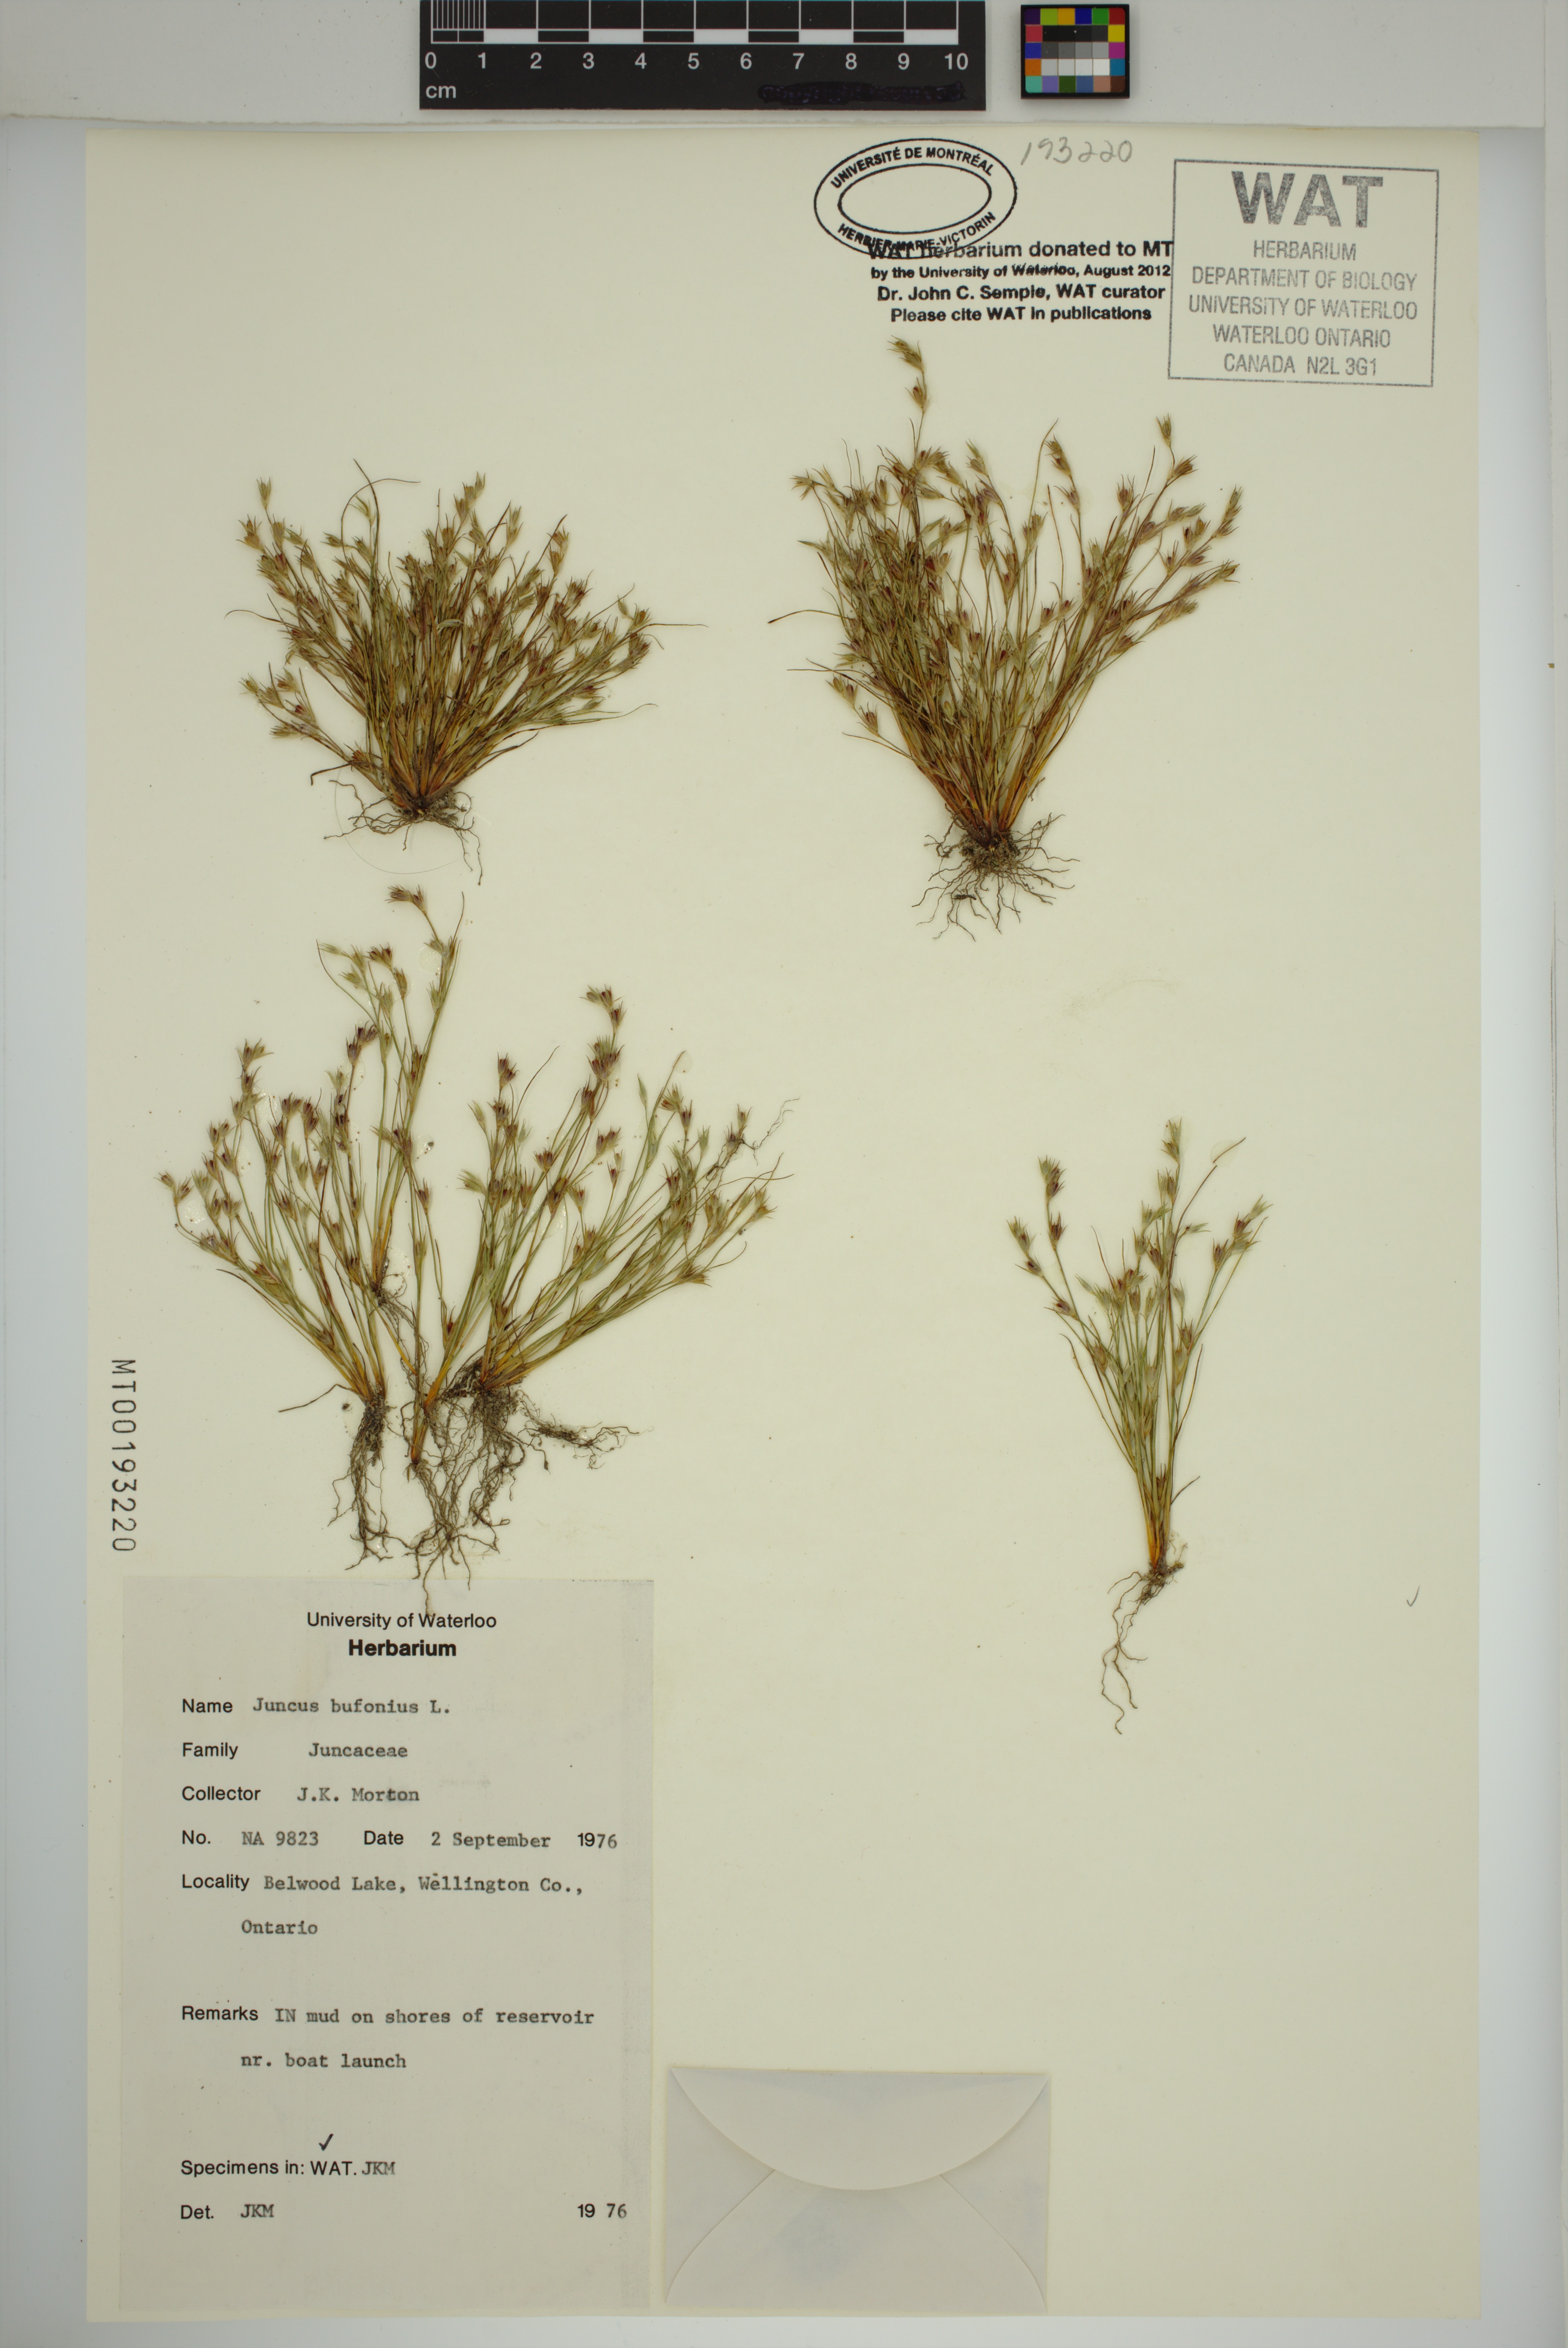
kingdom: Plantae
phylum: Tracheophyta
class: Liliopsida
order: Poales
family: Juncaceae
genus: Juncus
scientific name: Juncus bufonius
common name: Toad rush
